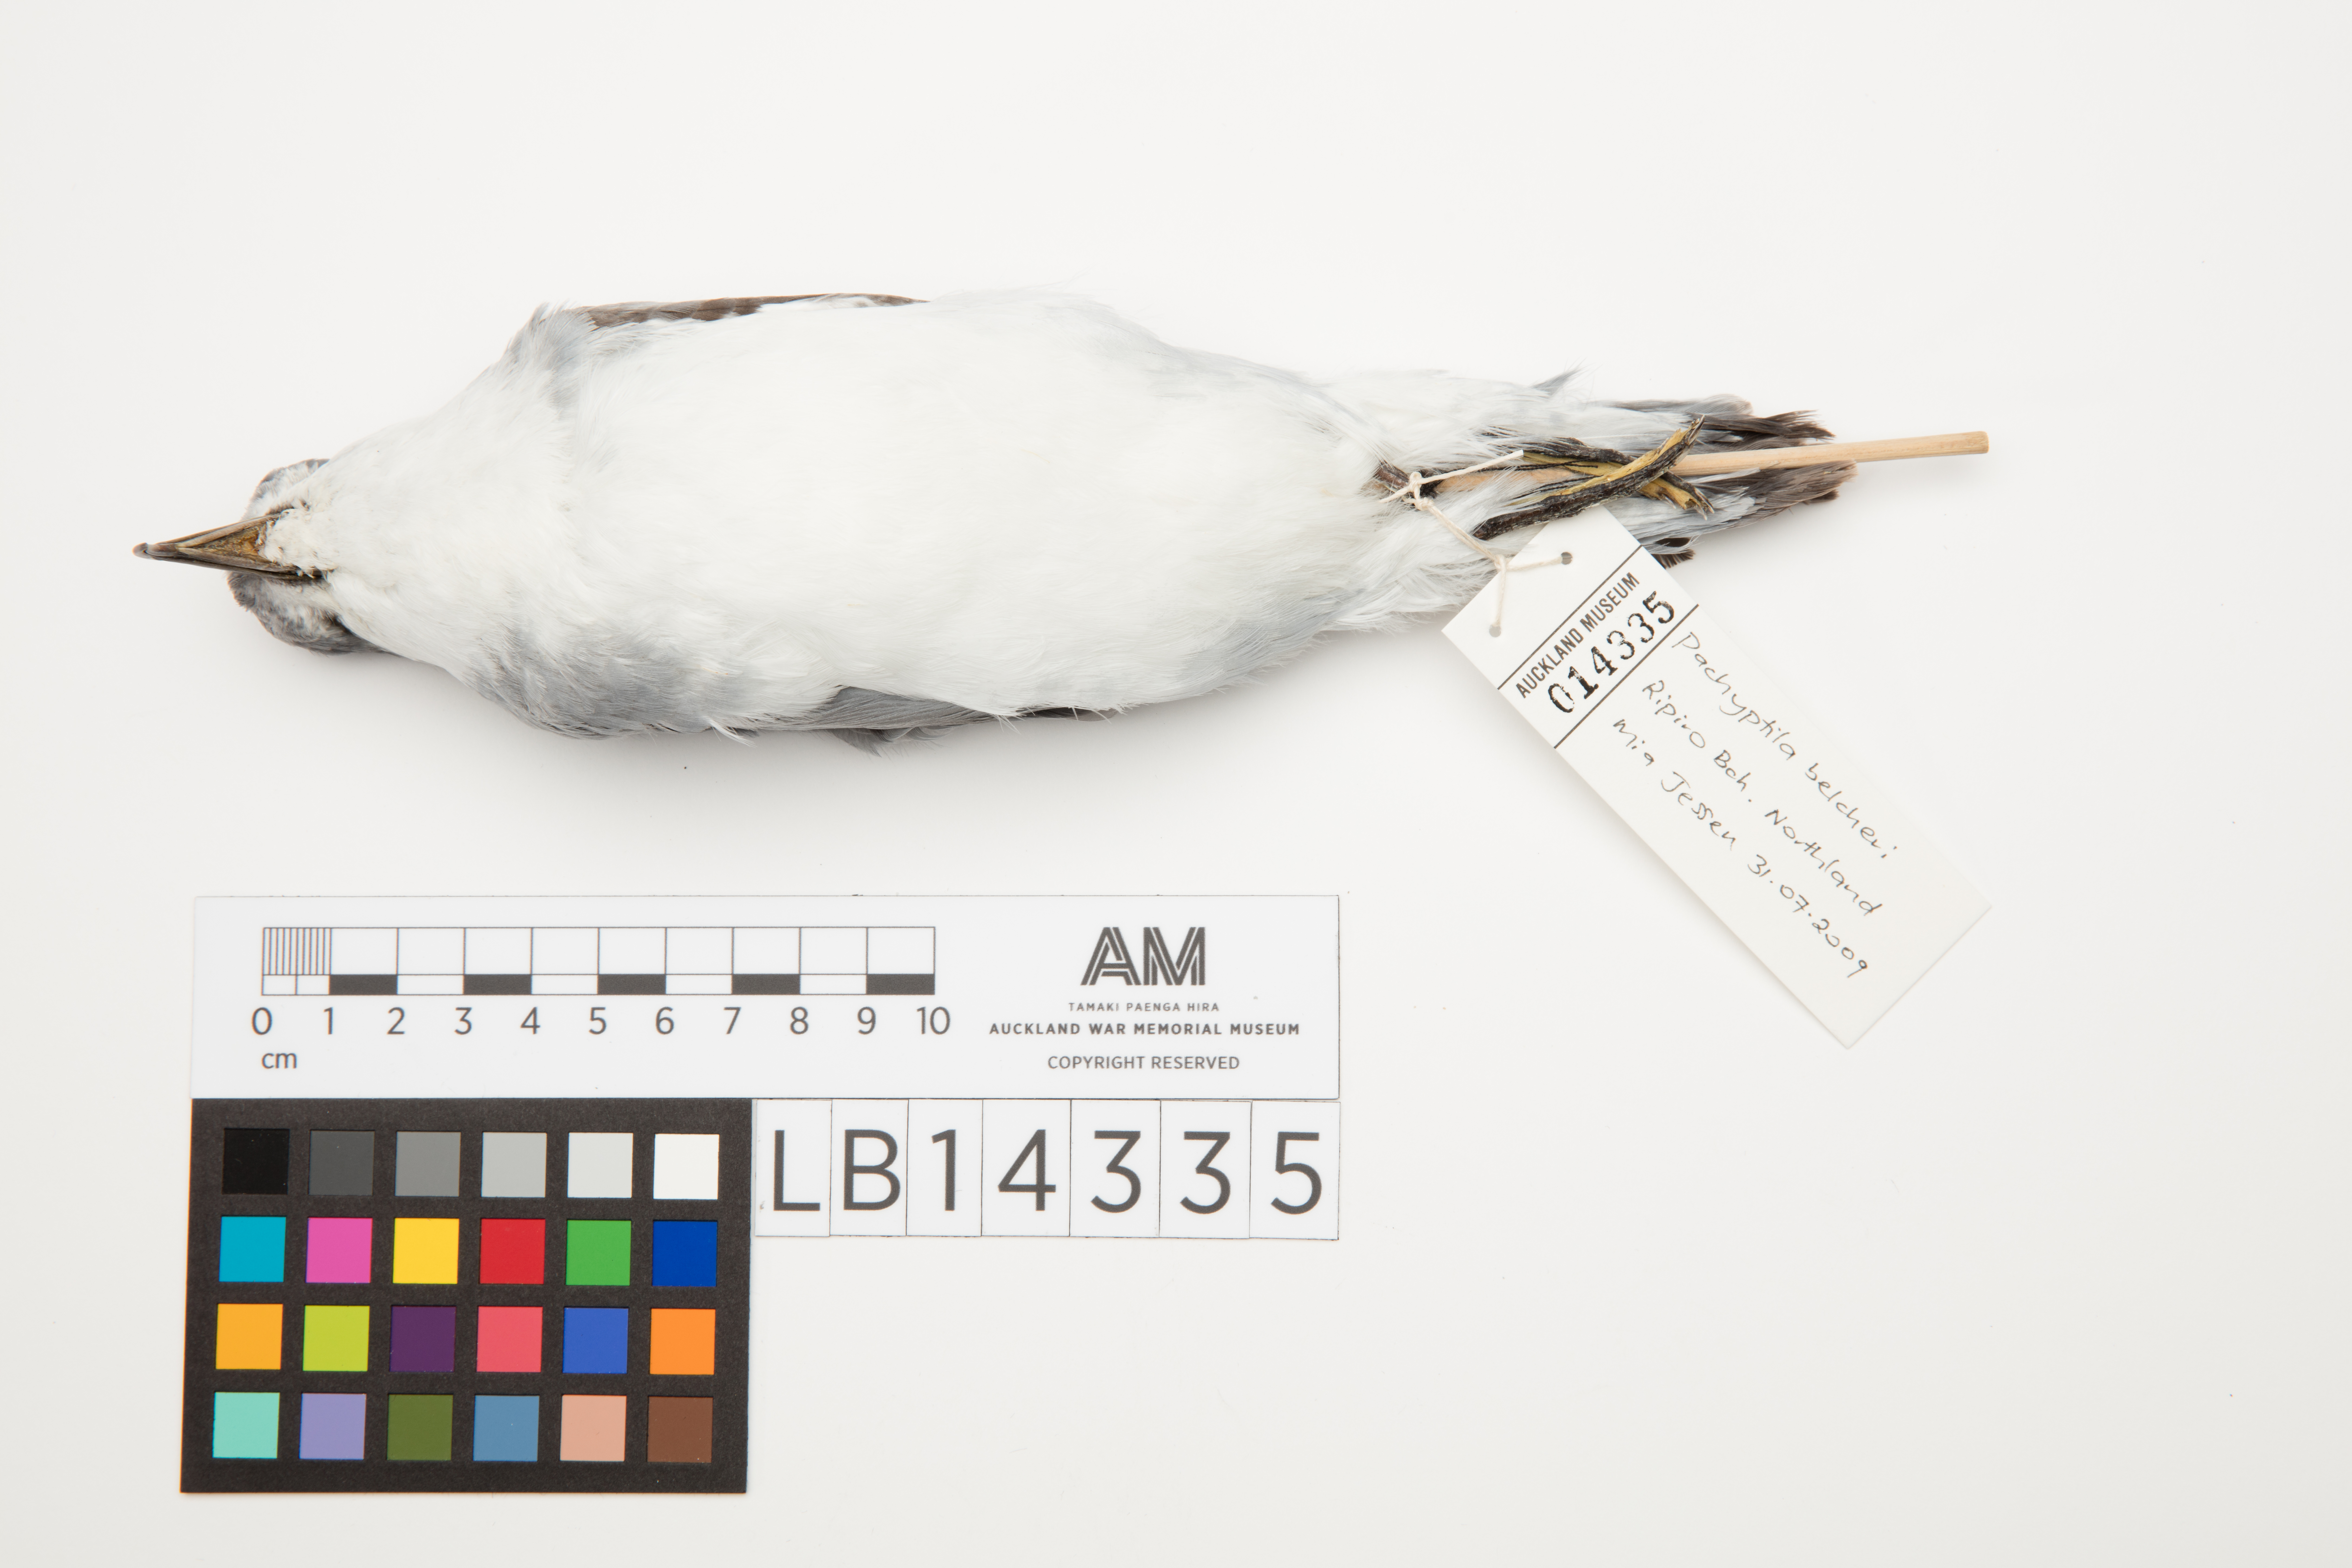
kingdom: Animalia
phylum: Chordata
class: Aves
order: Procellariiformes
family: Procellariidae
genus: Pachyptila
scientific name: Pachyptila belcheri
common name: Slender-billed prion
